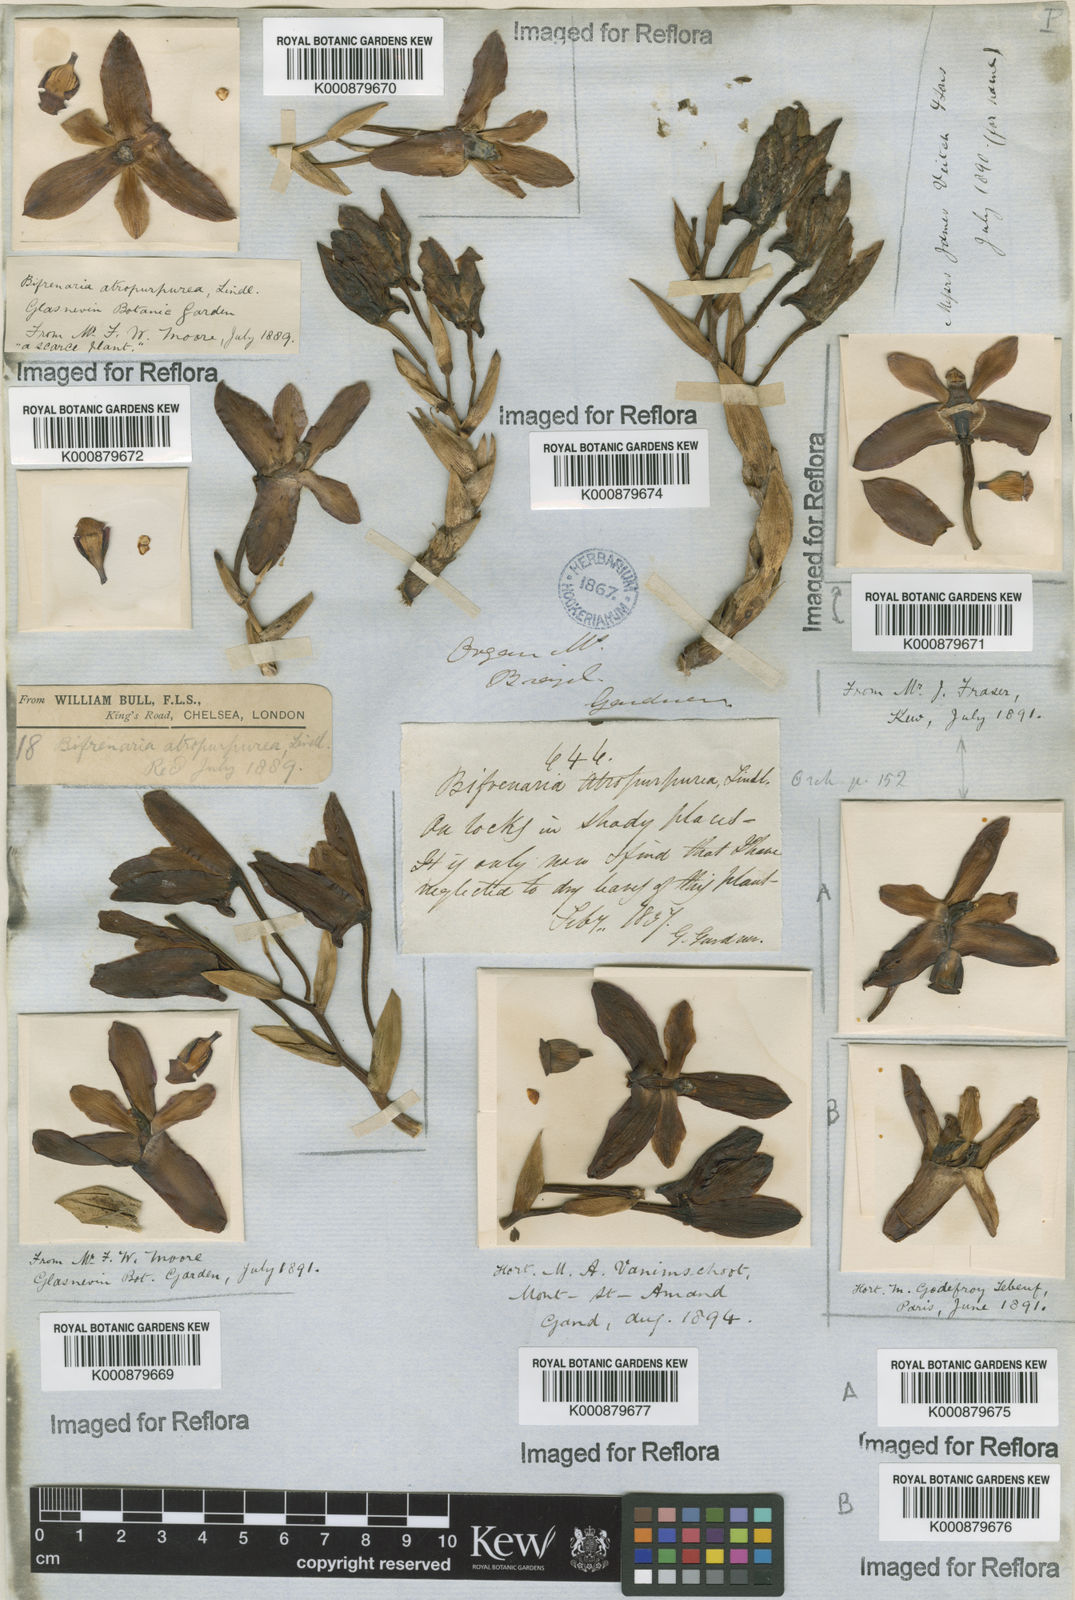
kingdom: Plantae
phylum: Tracheophyta
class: Liliopsida
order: Asparagales
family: Orchidaceae
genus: Bifrenaria
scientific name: Bifrenaria atropurpurea
